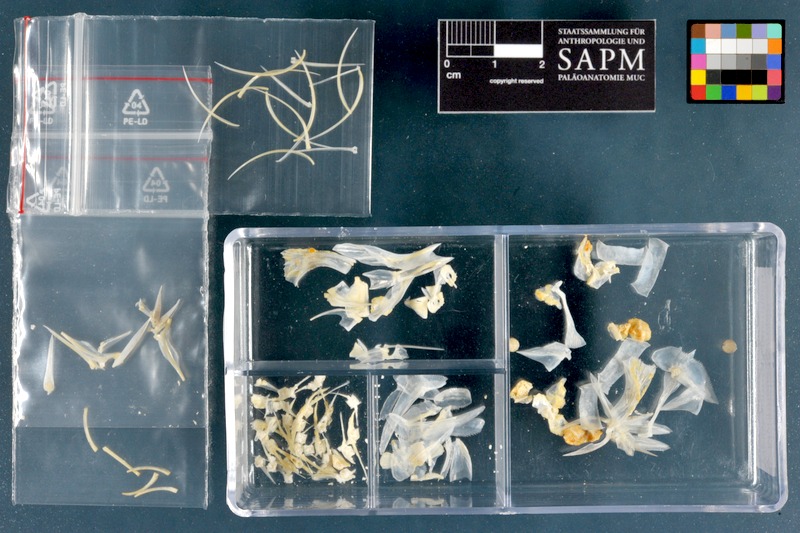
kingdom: Animalia
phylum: Chordata
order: Beryciformes
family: Holocentridae
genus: Myripristis
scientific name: Myripristis murdjan
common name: Big-eye soldierfish
